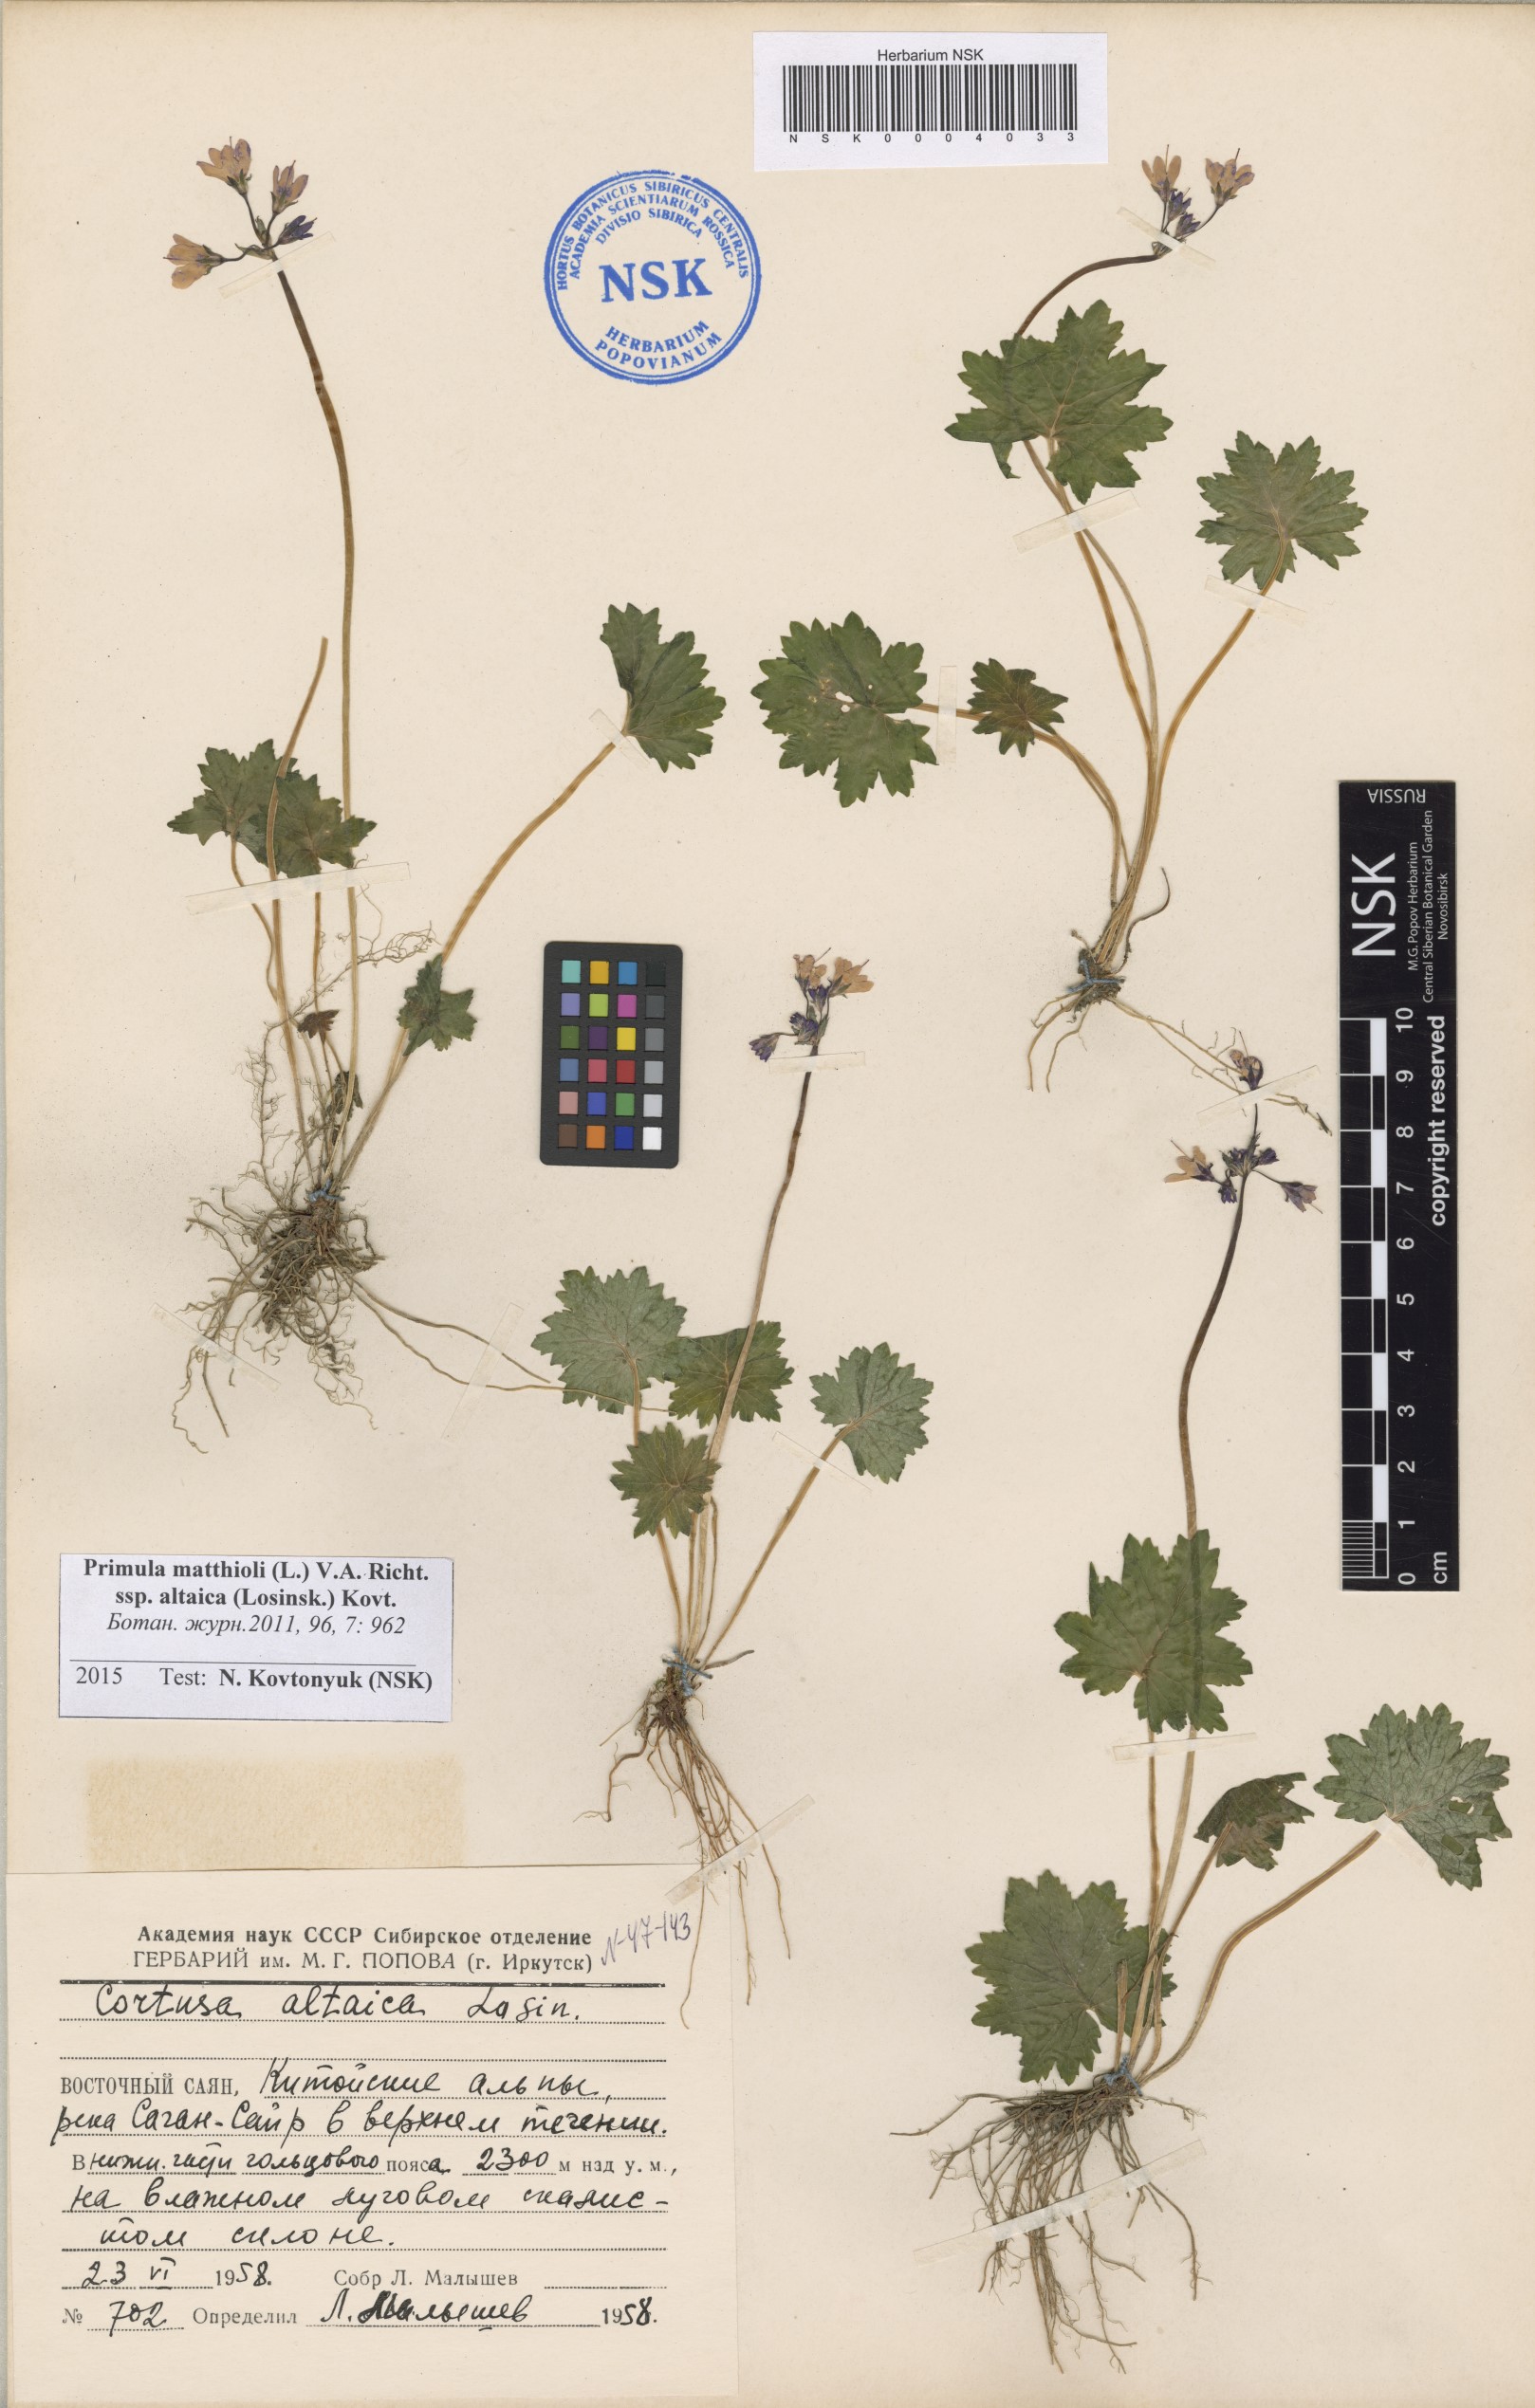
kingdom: Plantae
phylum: Tracheophyta
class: Magnoliopsida
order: Ericales
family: Primulaceae
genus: Primula
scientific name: Primula matthioli
